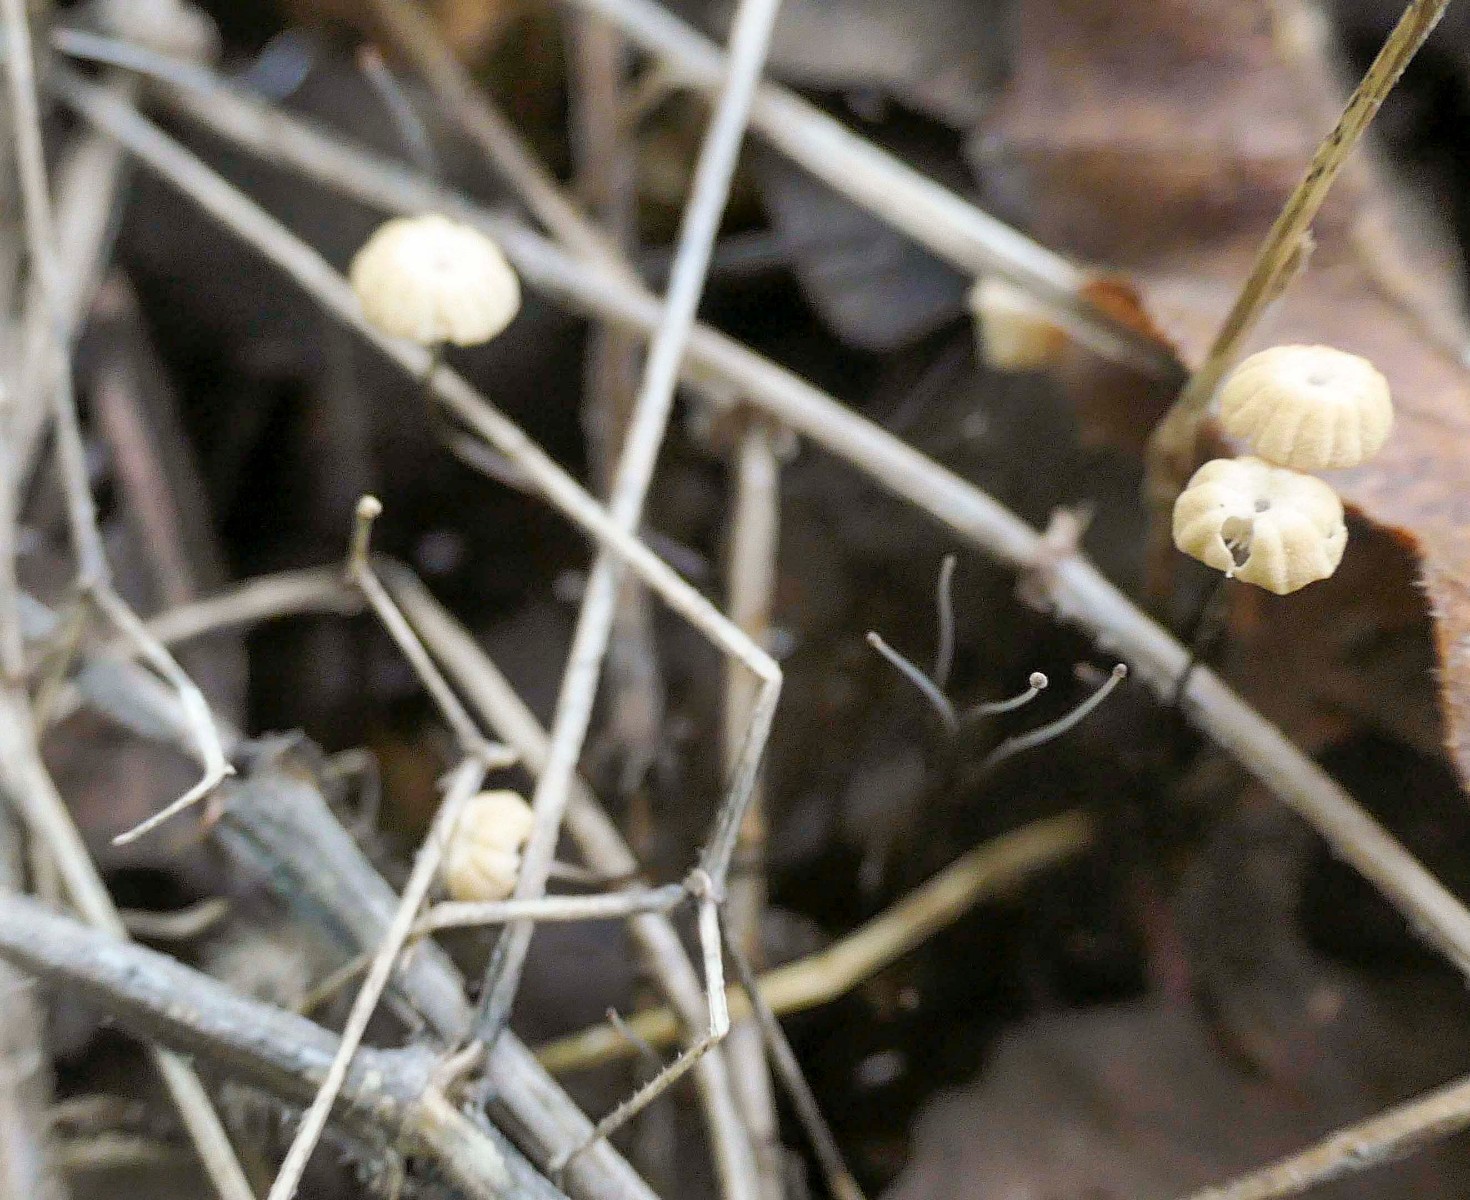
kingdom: Fungi
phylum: Basidiomycota
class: Agaricomycetes
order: Agaricales
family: Marasmiaceae
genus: Marasmius
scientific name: Marasmius bulliardii
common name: furet bruskhat
